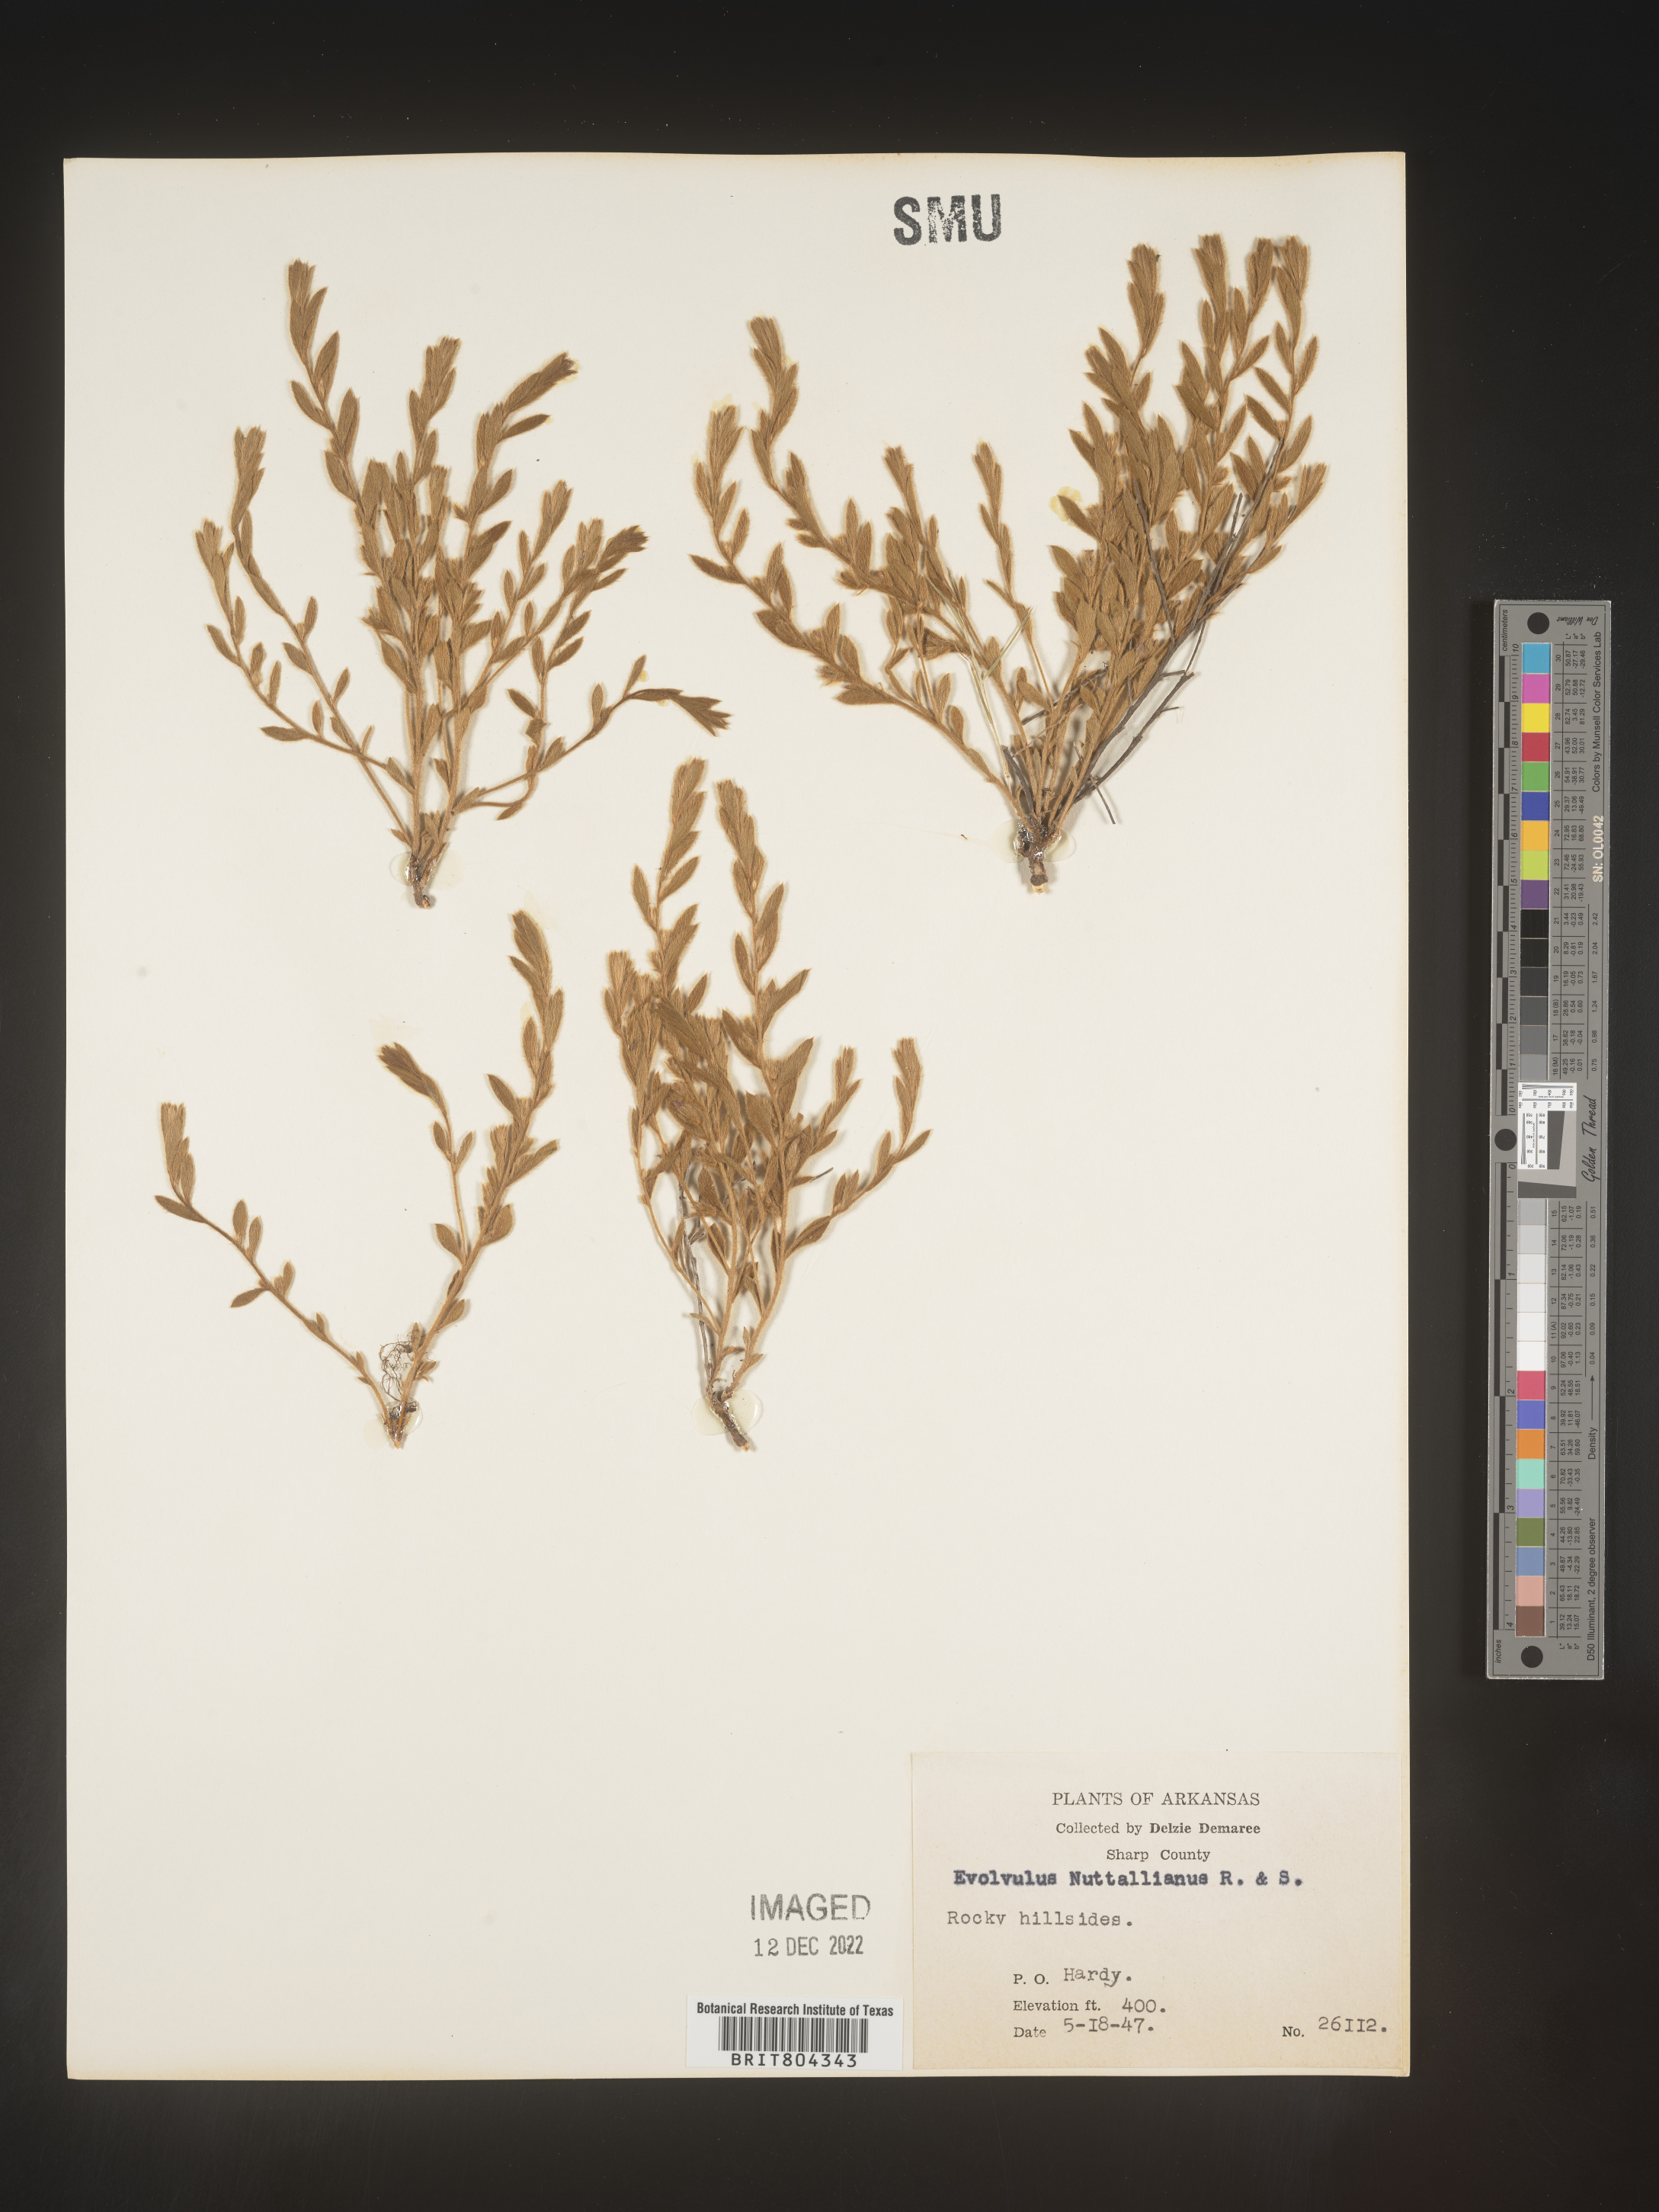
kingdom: Plantae
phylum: Tracheophyta
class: Magnoliopsida
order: Solanales
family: Convolvulaceae
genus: Evolvulus
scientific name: Evolvulus nuttallianus
